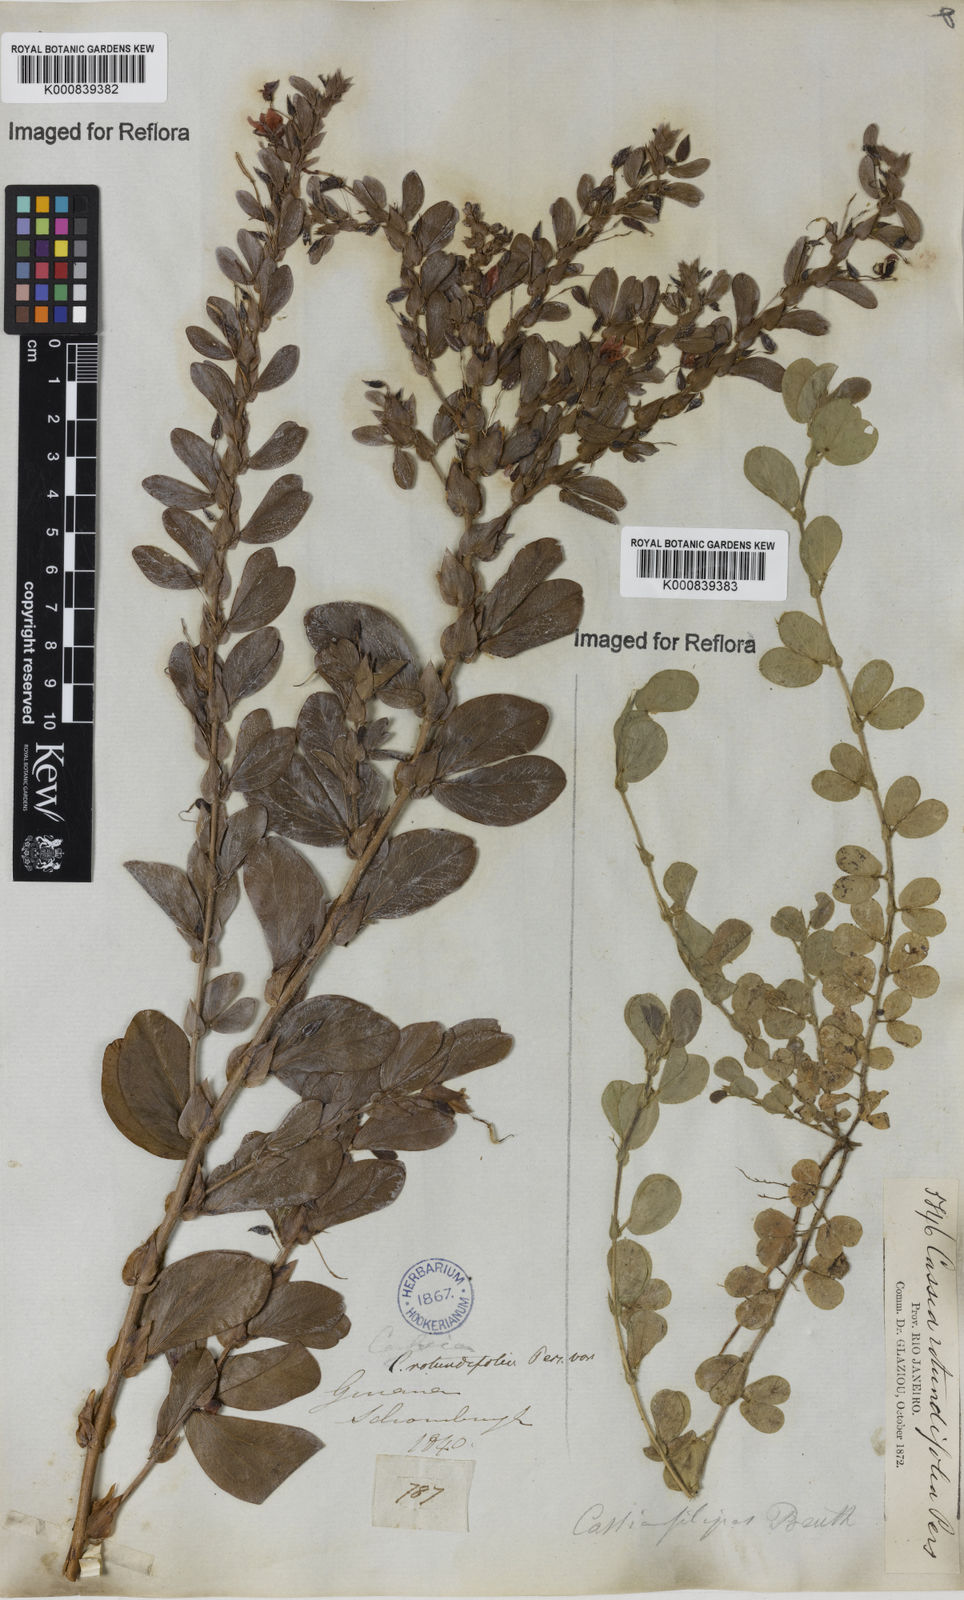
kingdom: Plantae
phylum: Tracheophyta
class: Magnoliopsida
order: Fabales
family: Fabaceae
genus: Chamaecrista
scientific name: Chamaecrista rotundifolia
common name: Round-leaf cassia
